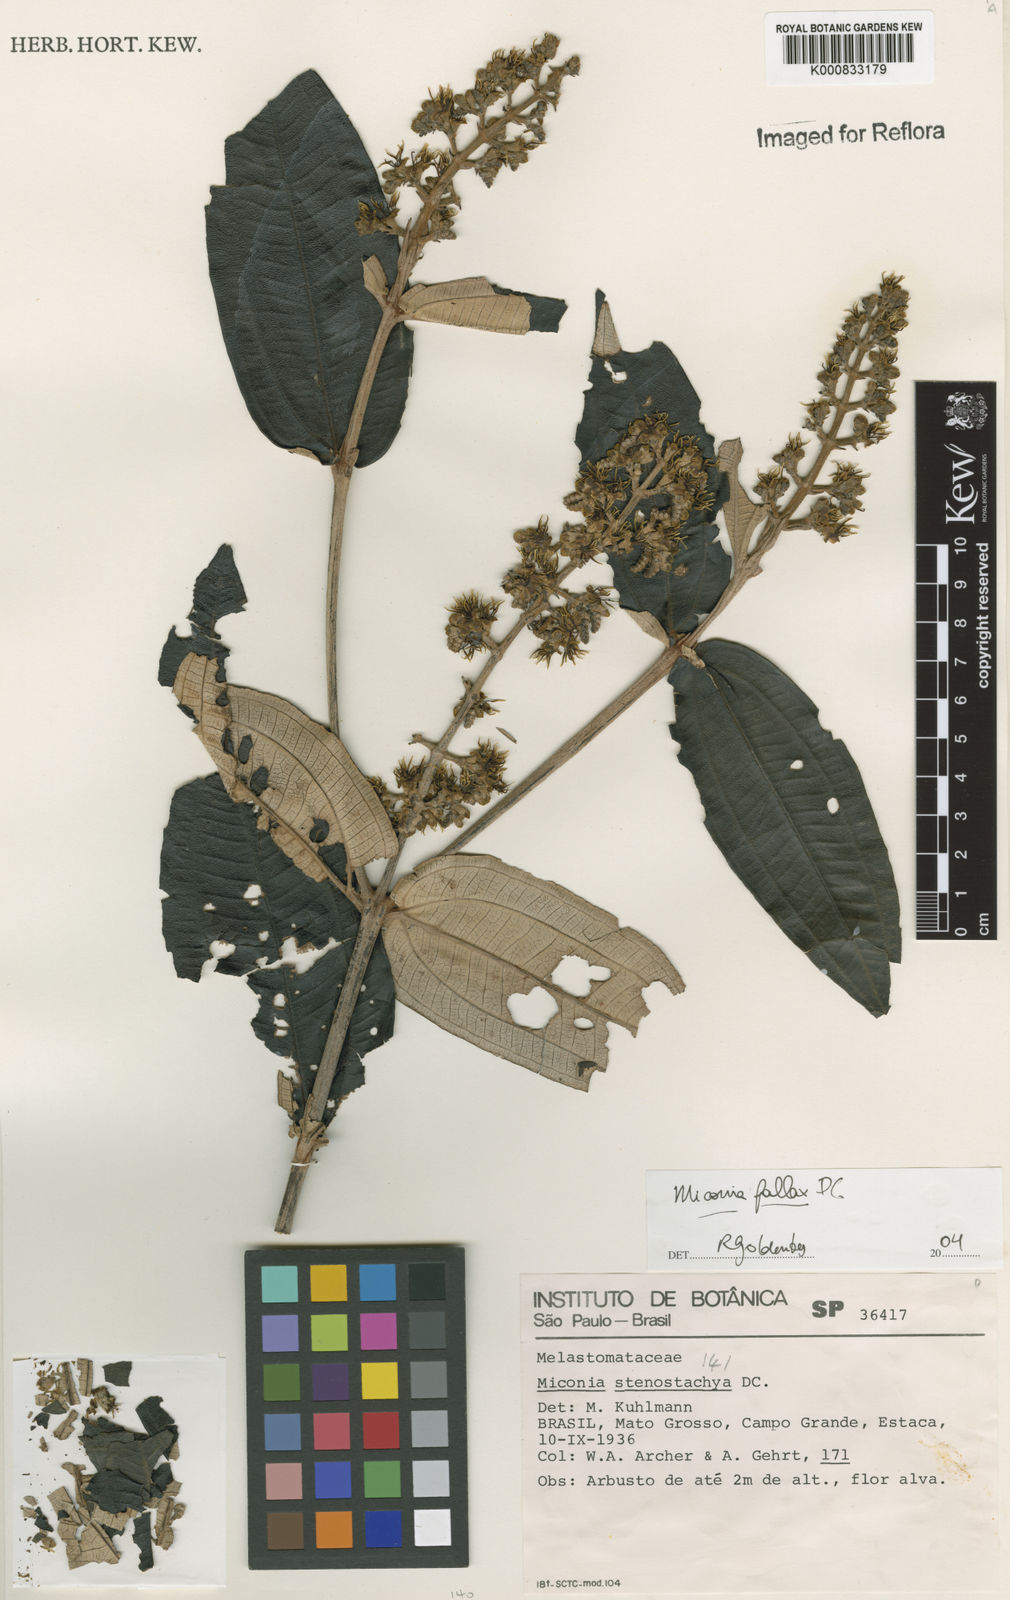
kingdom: Plantae
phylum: Tracheophyta
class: Magnoliopsida
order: Myrtales
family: Melastomataceae
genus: Miconia
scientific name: Miconia fallax
